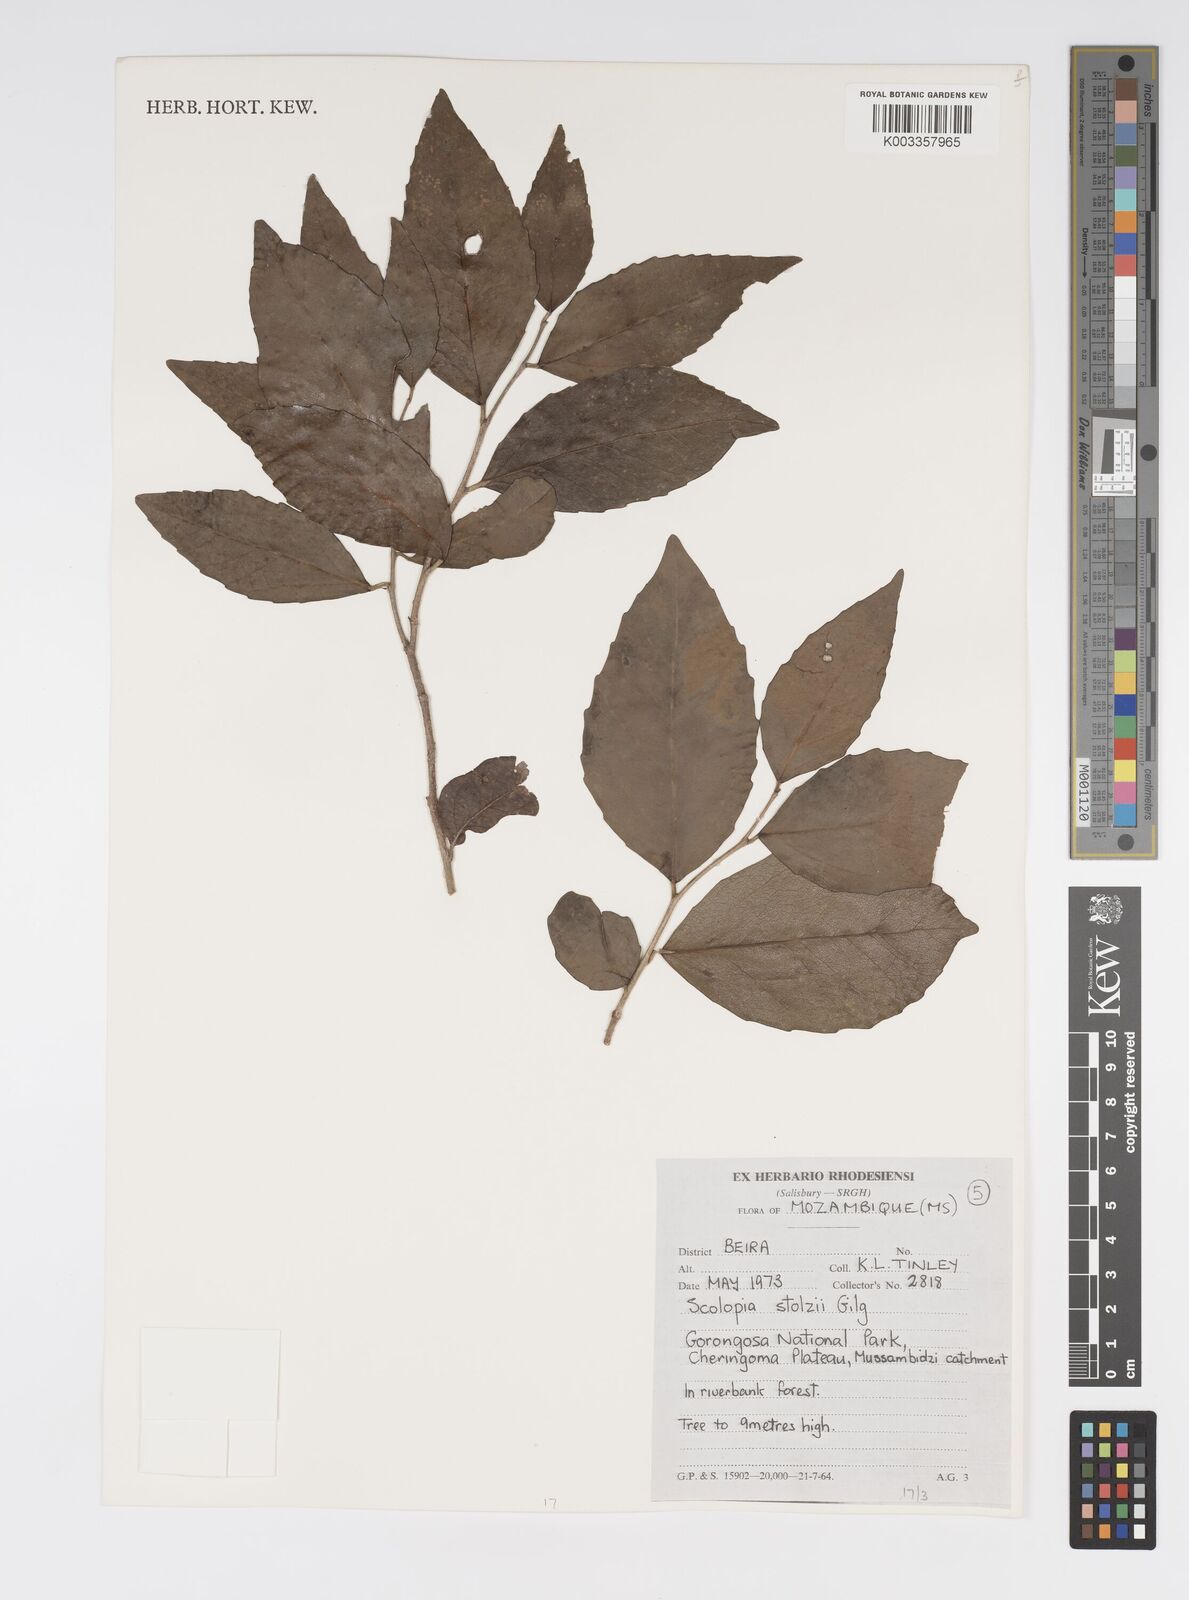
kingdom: Plantae
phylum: Tracheophyta
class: Magnoliopsida
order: Malpighiales
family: Salicaceae
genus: Scolopia
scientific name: Scolopia stolzii
